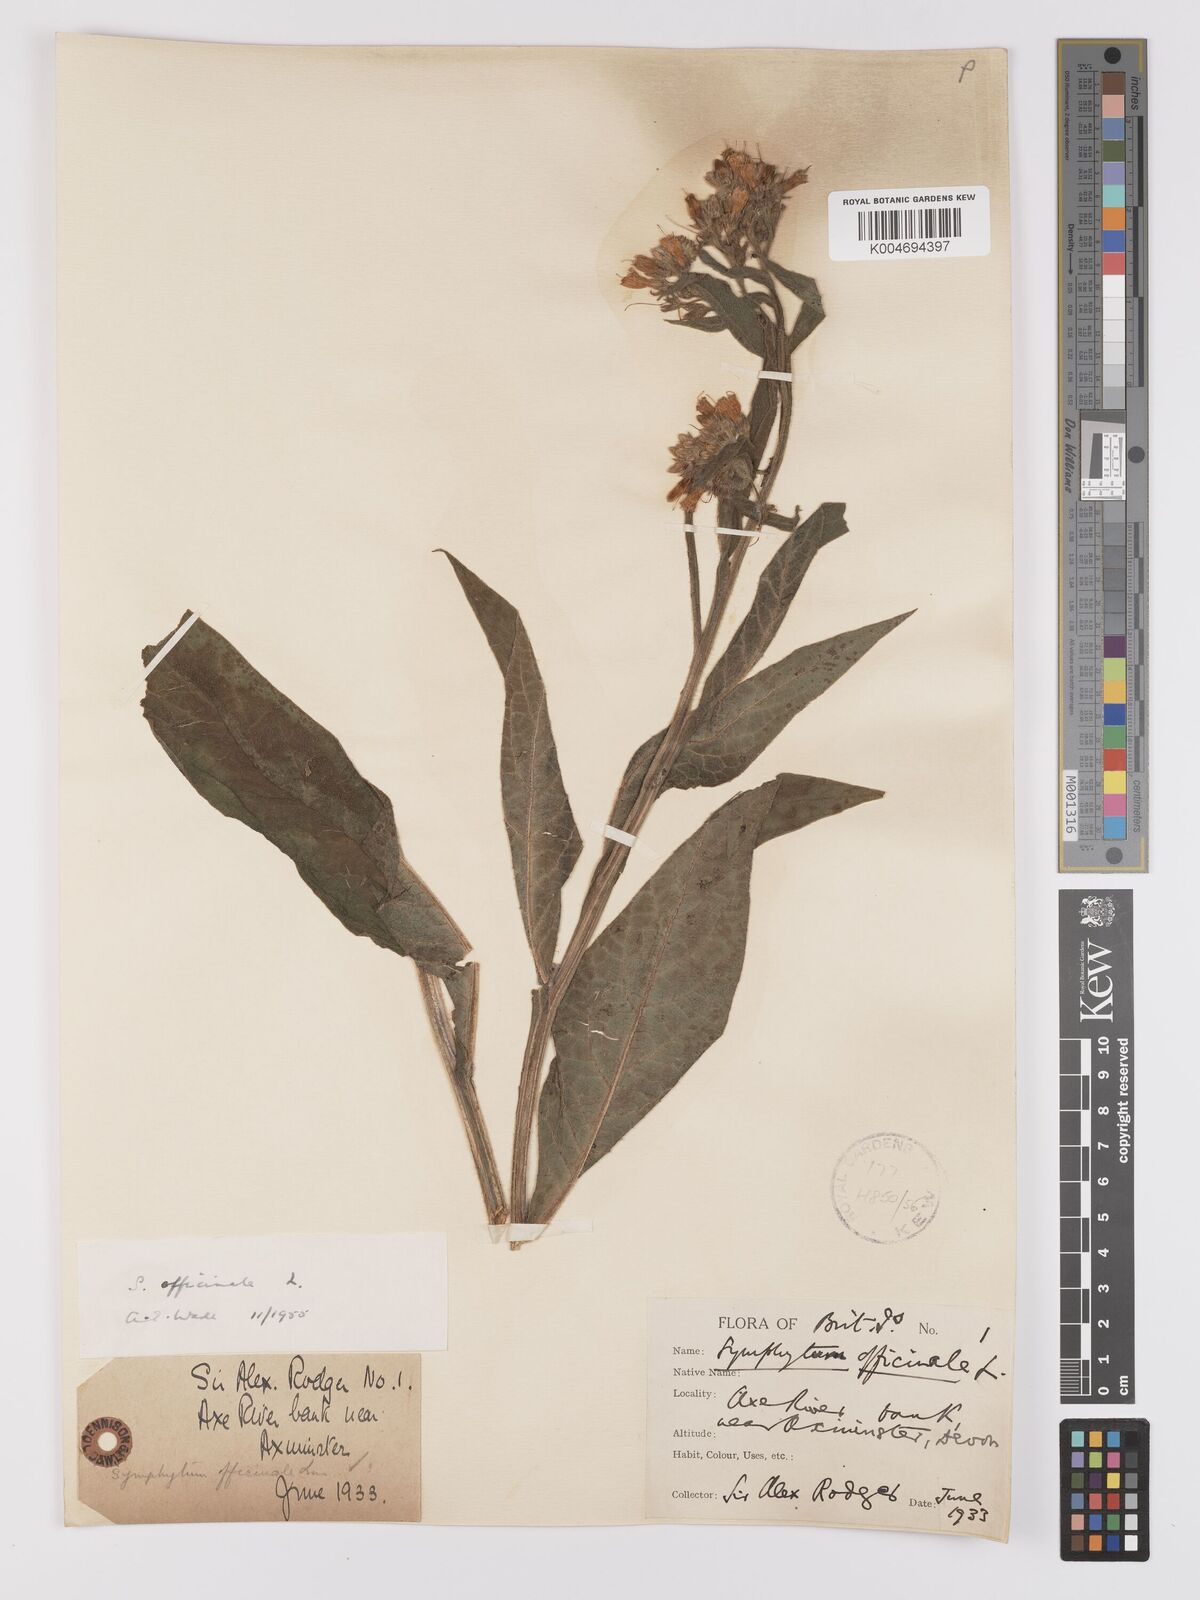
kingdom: Plantae
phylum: Tracheophyta
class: Magnoliopsida
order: Boraginales
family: Boraginaceae
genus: Symphytum
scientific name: Symphytum officinale
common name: Common comfrey
